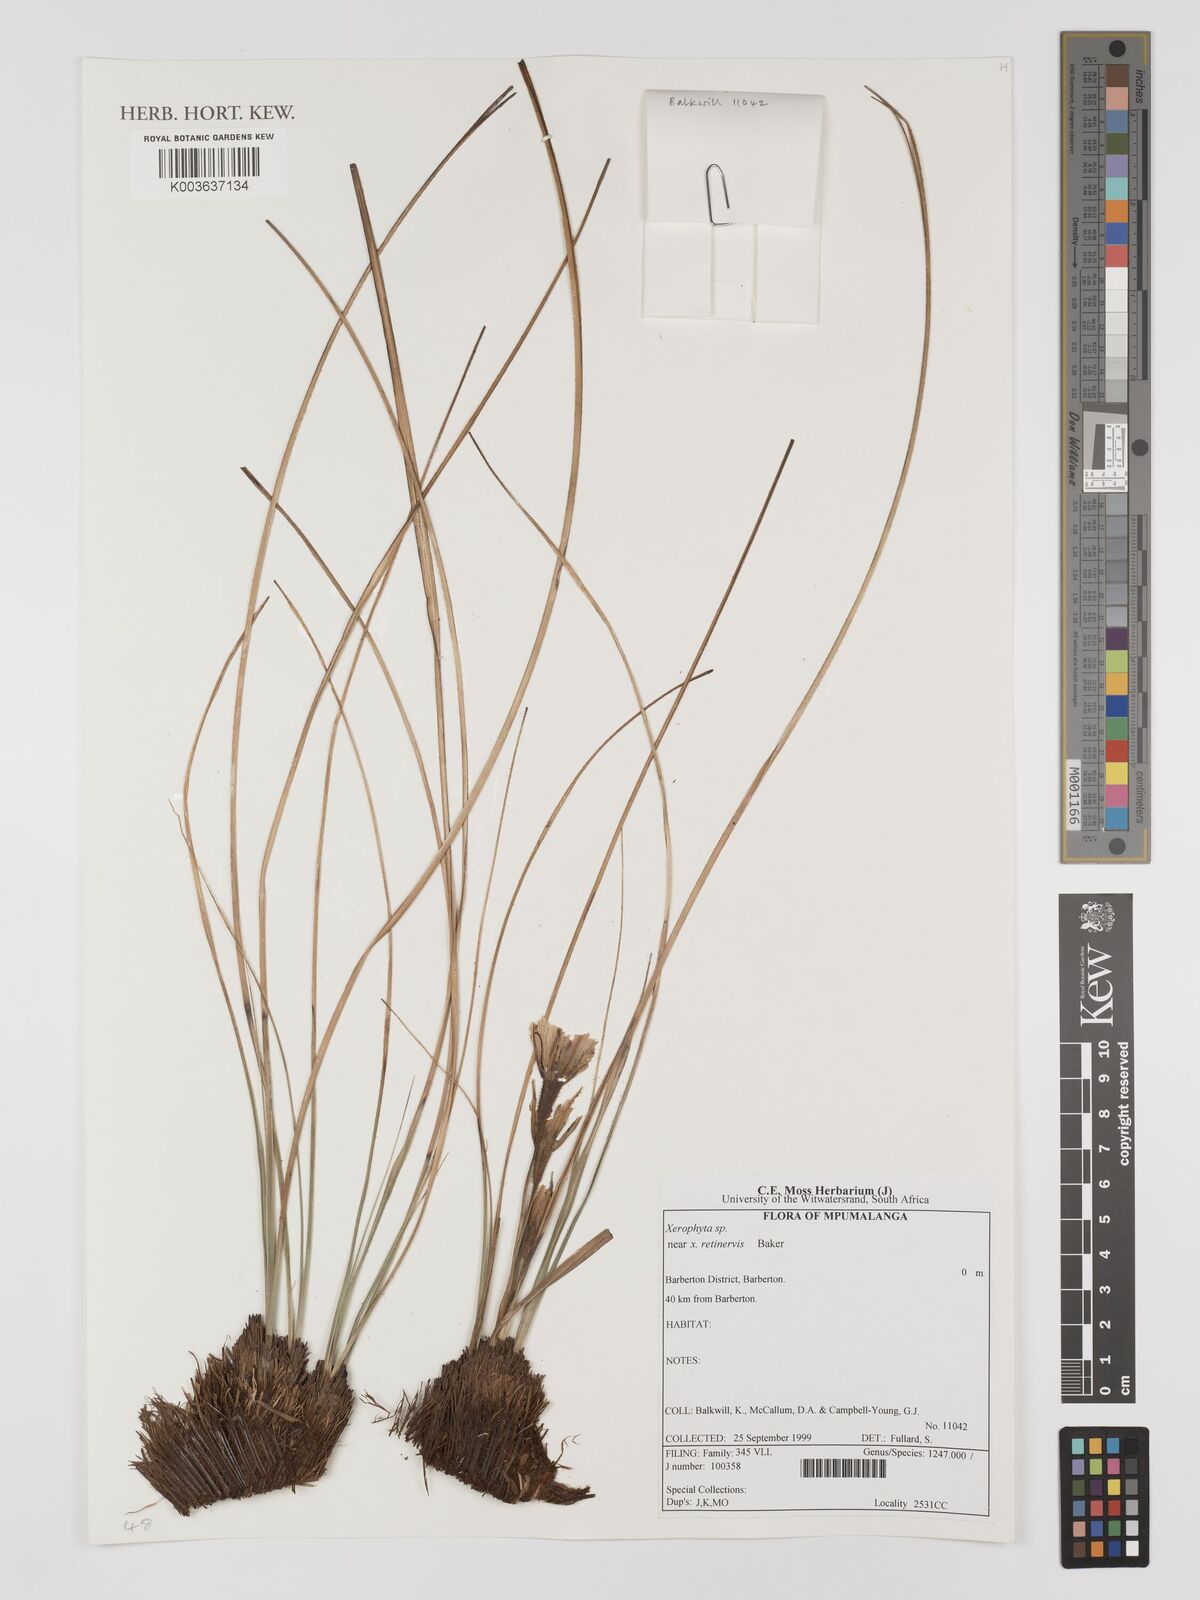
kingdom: Plantae
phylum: Tracheophyta
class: Liliopsida
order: Pandanales
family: Velloziaceae
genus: Xerophyta
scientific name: Xerophyta
